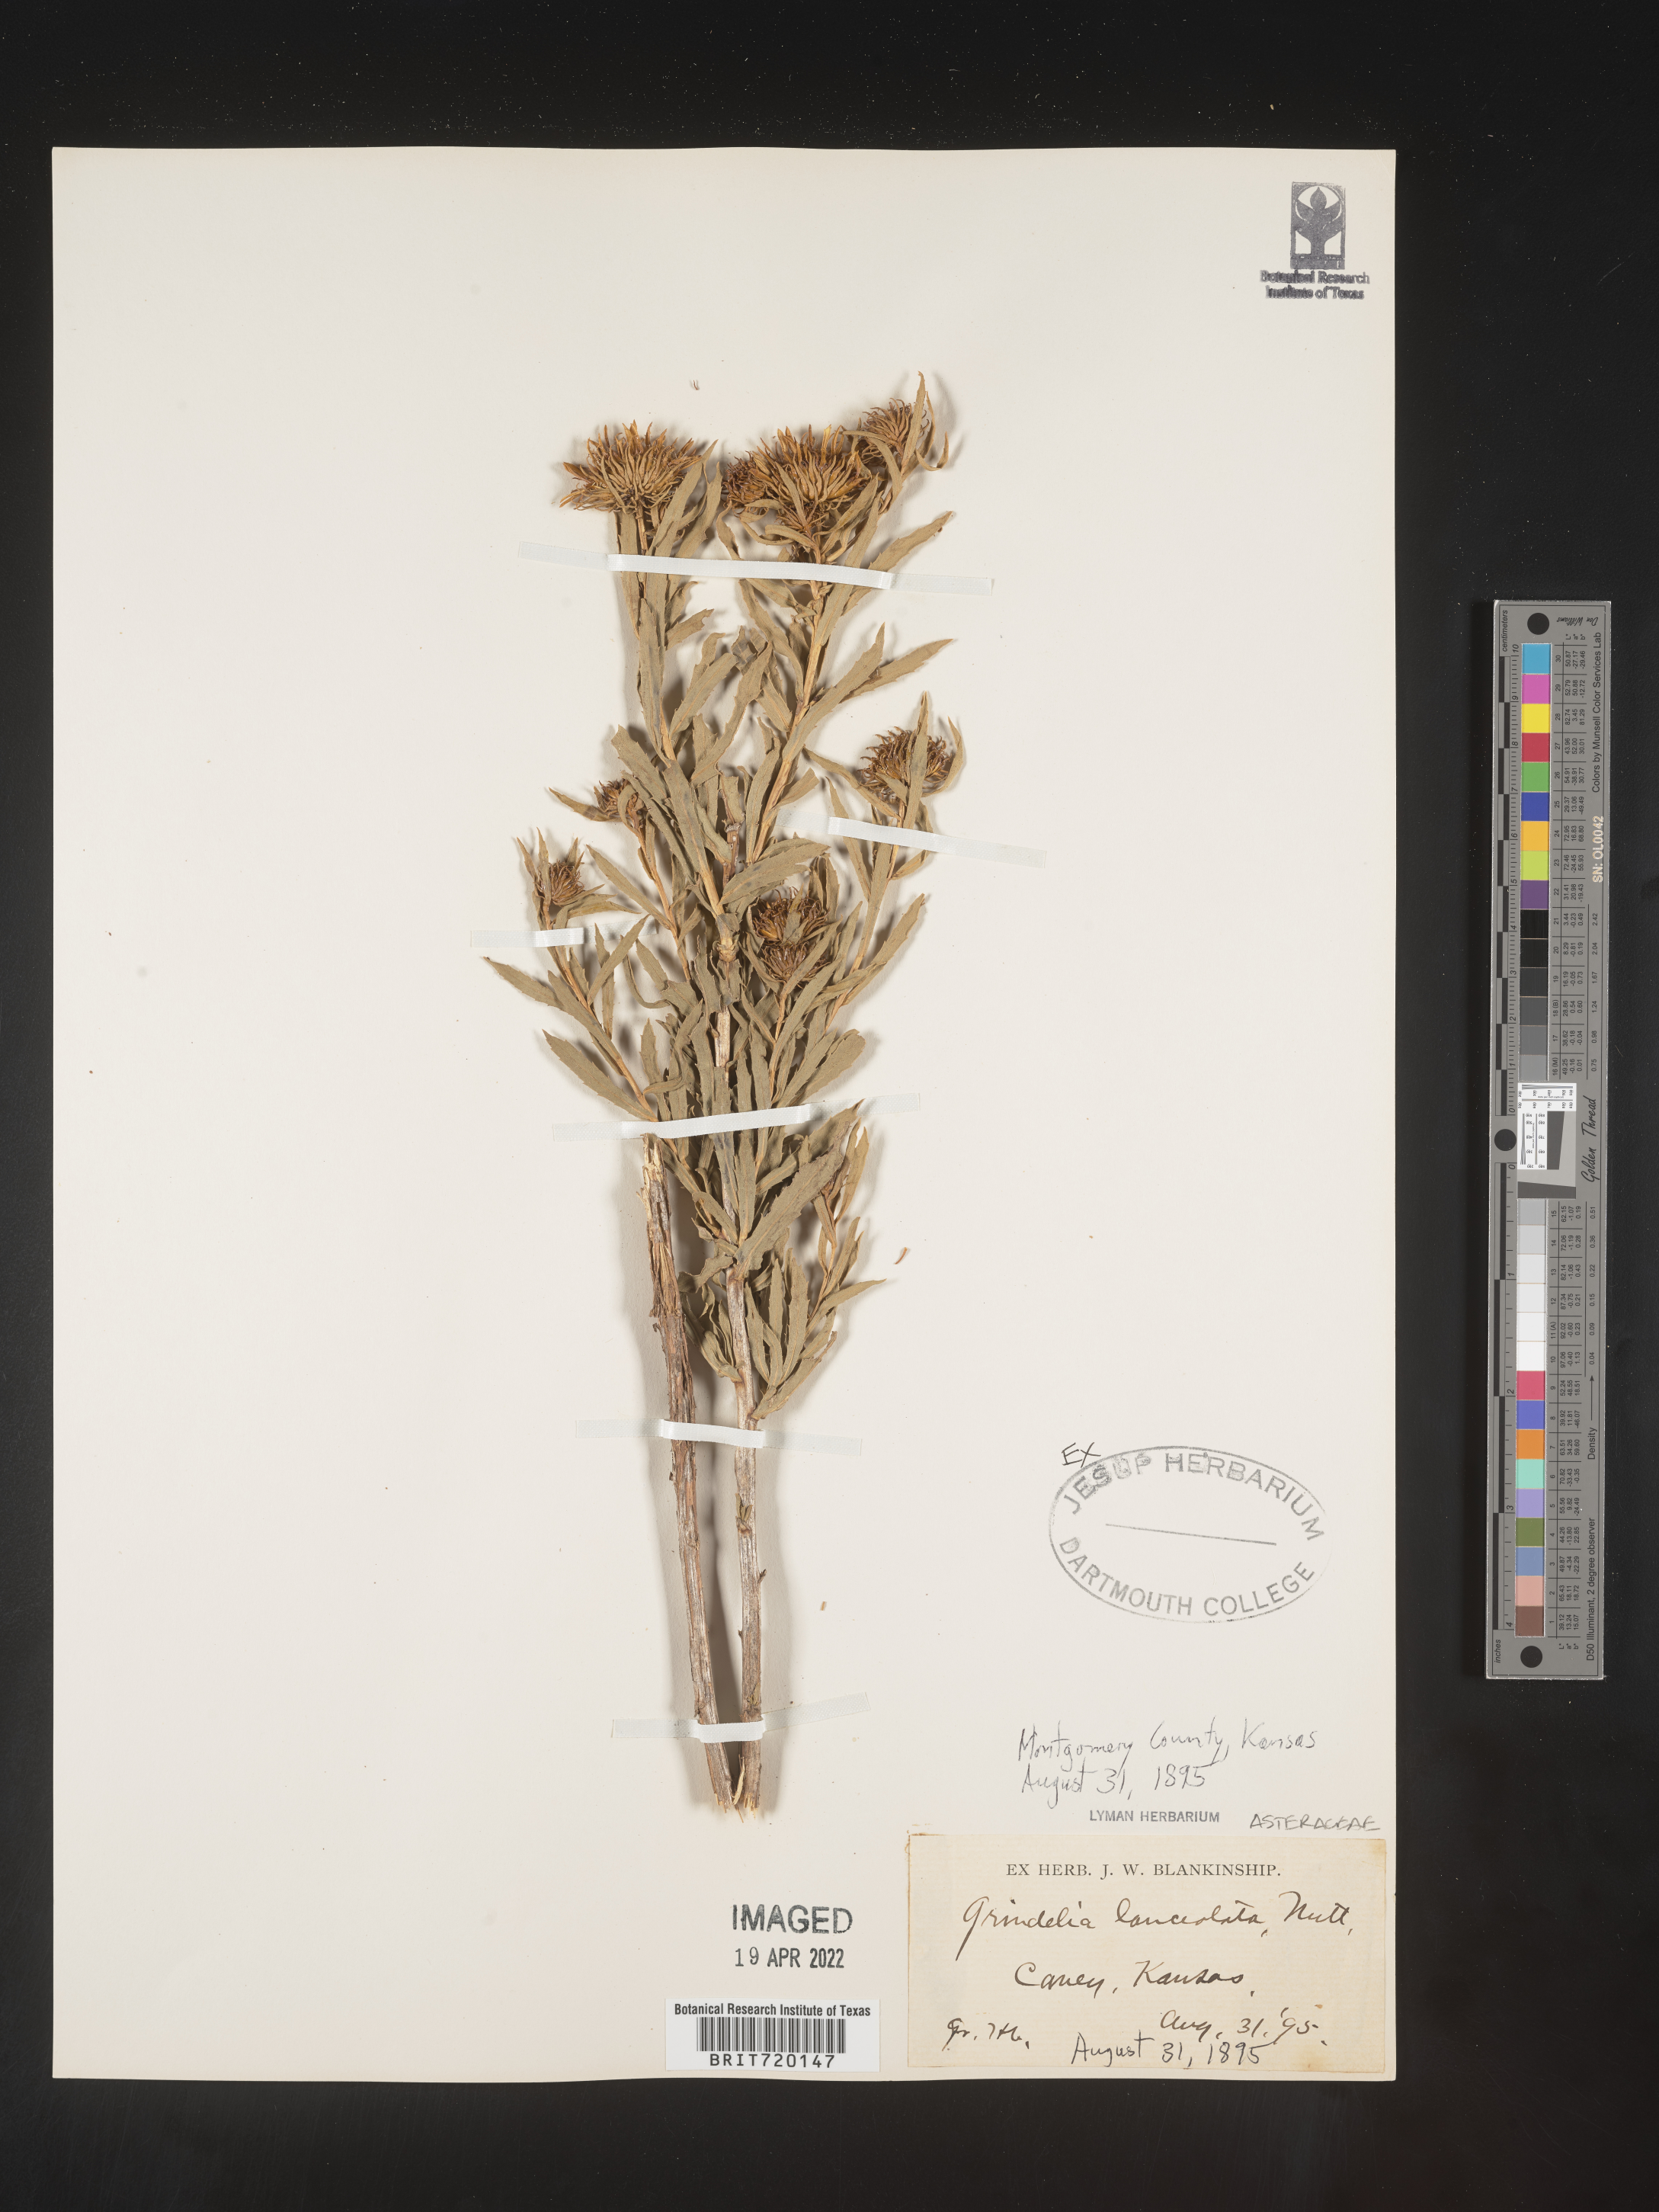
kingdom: Plantae
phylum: Tracheophyta
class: Magnoliopsida
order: Asterales
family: Asteraceae
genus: Grindelia
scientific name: Grindelia lanceolata
